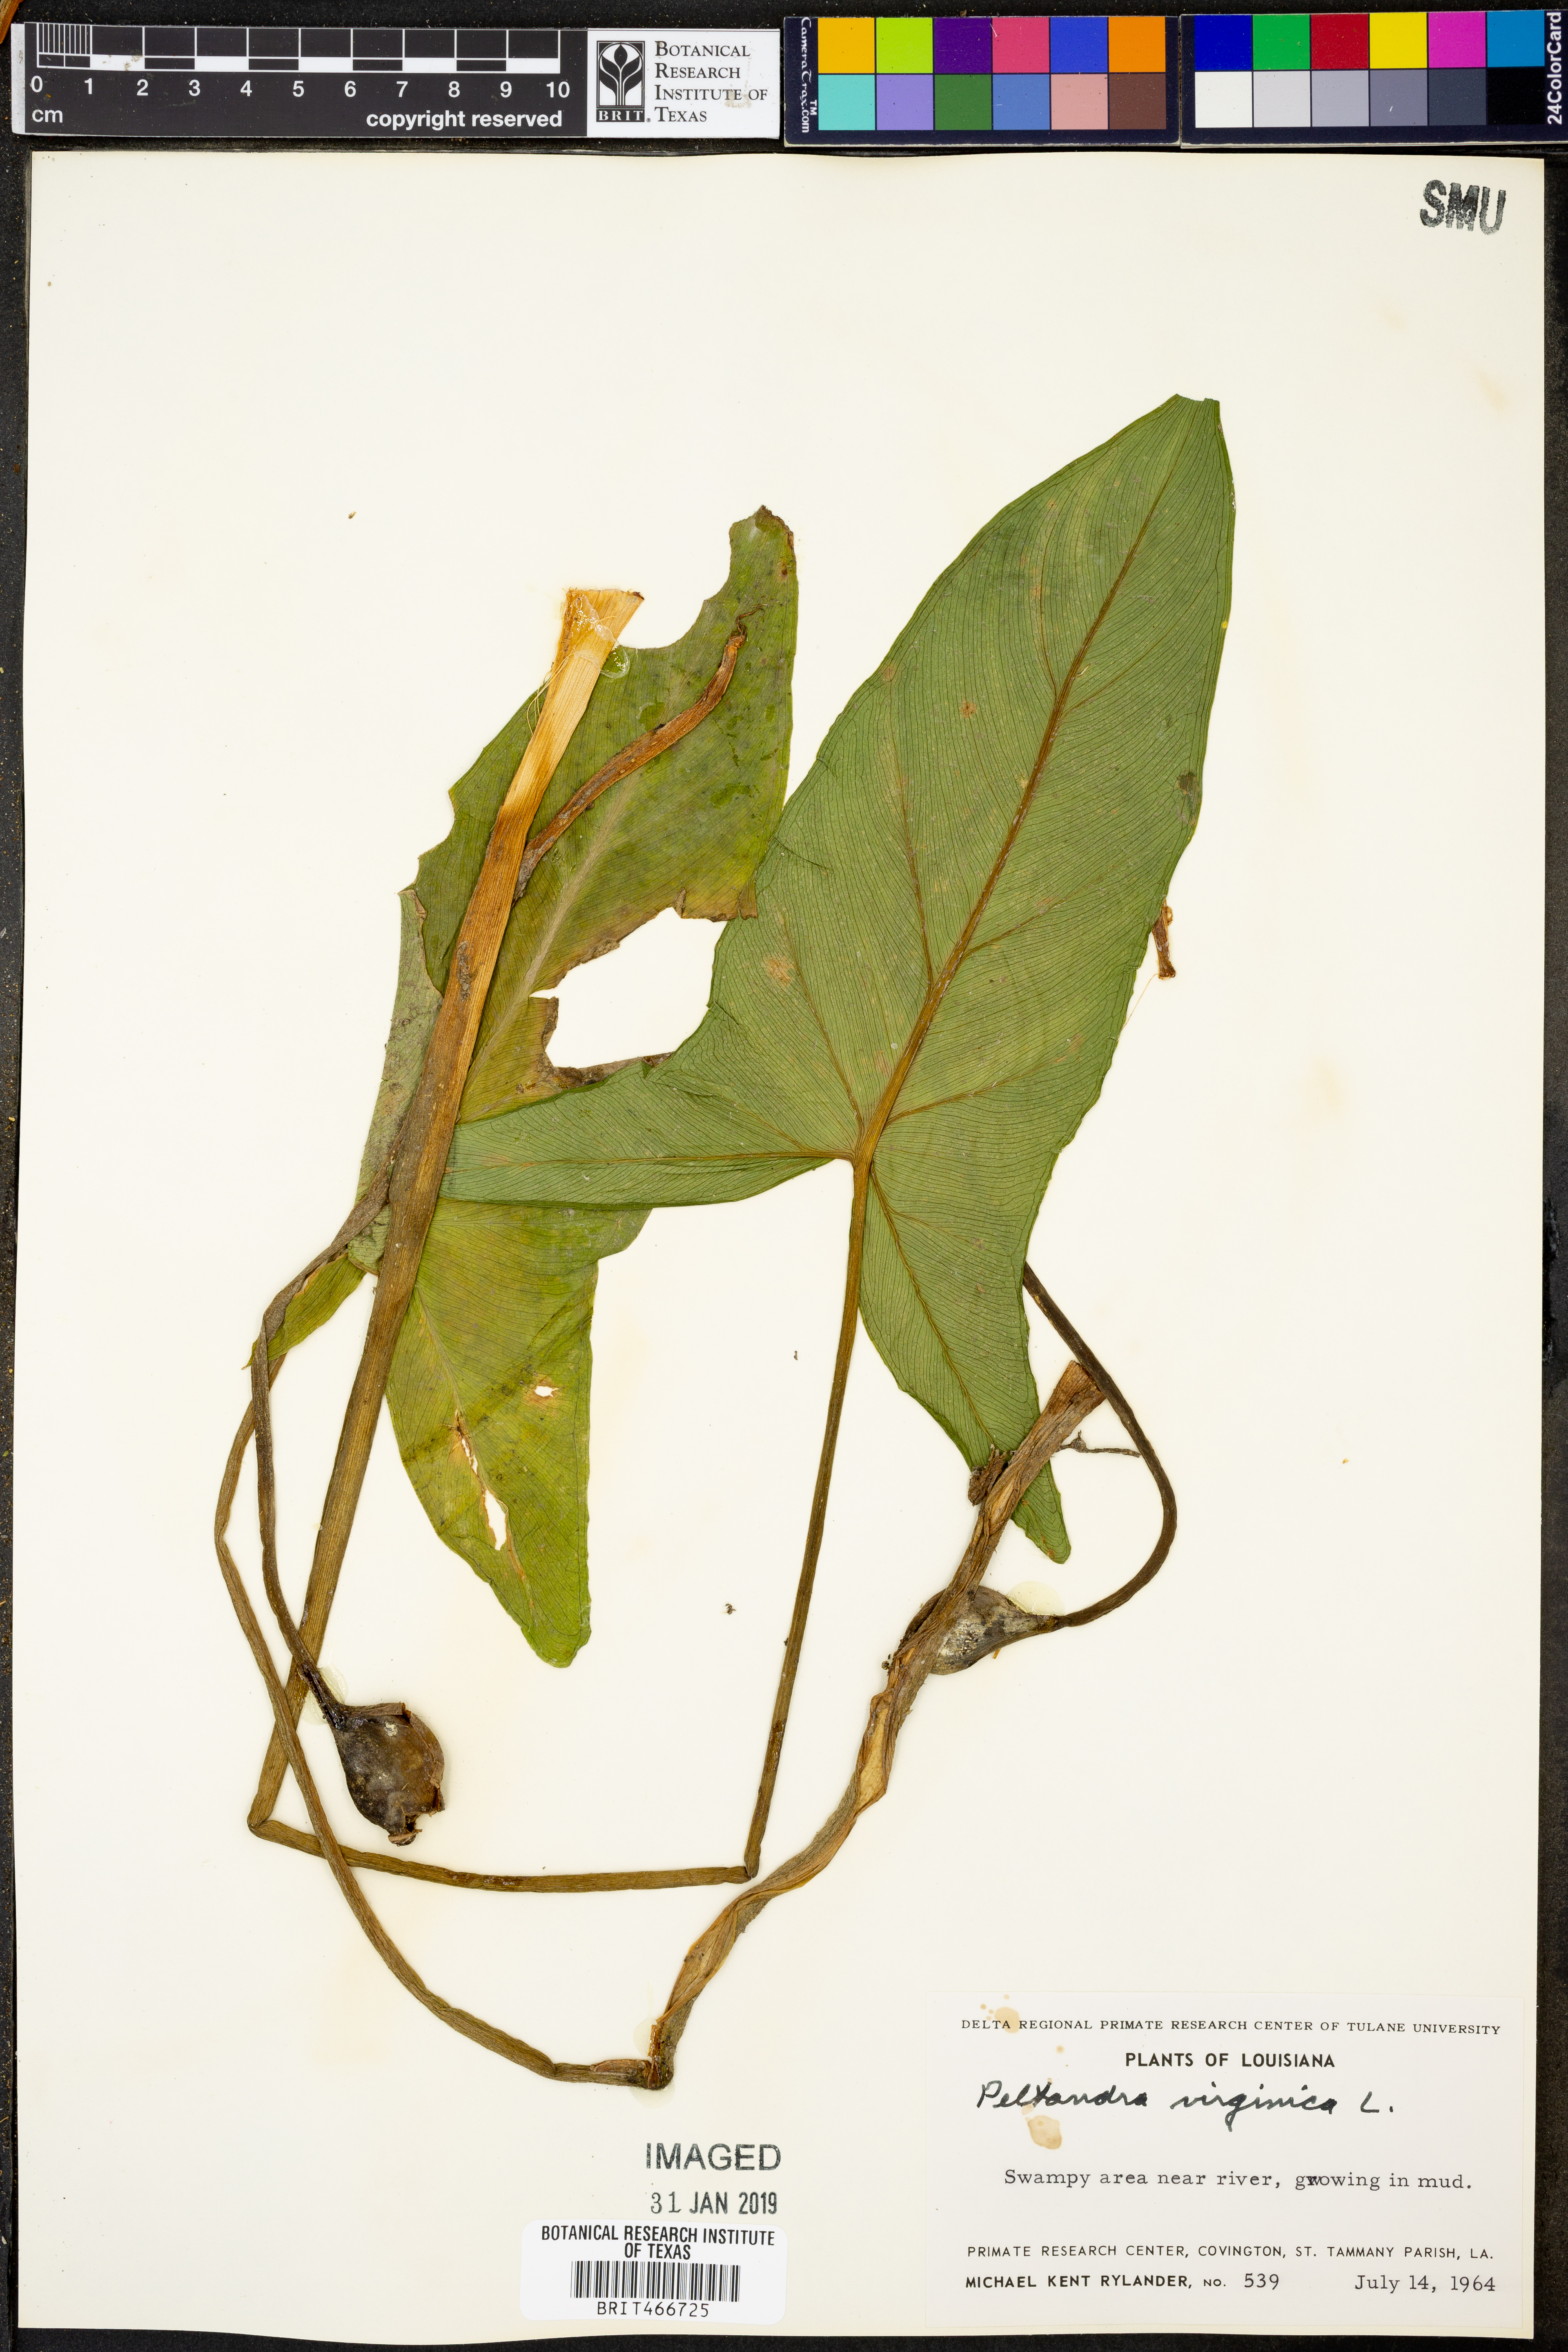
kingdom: Plantae
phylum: Tracheophyta
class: Liliopsida
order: Alismatales
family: Araceae
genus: Peltandra
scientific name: Peltandra virginica
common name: Arrow arum
